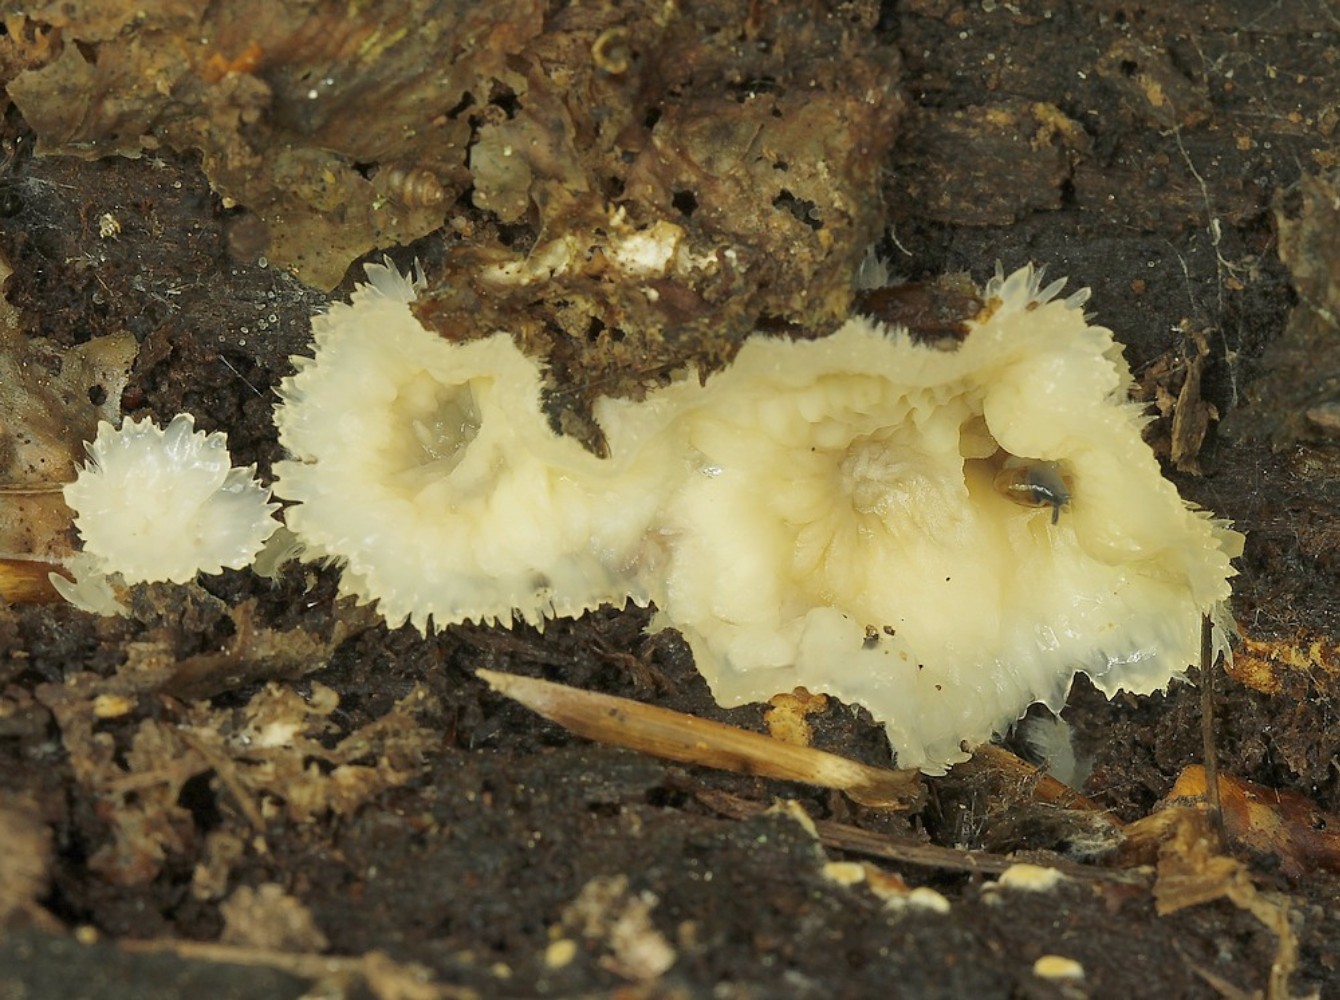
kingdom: Fungi
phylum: Basidiomycota
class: Agaricomycetes
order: Polyporales
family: Meruliaceae
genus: Phlebia
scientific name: Phlebia tremellosa
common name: bævrende åresvamp
